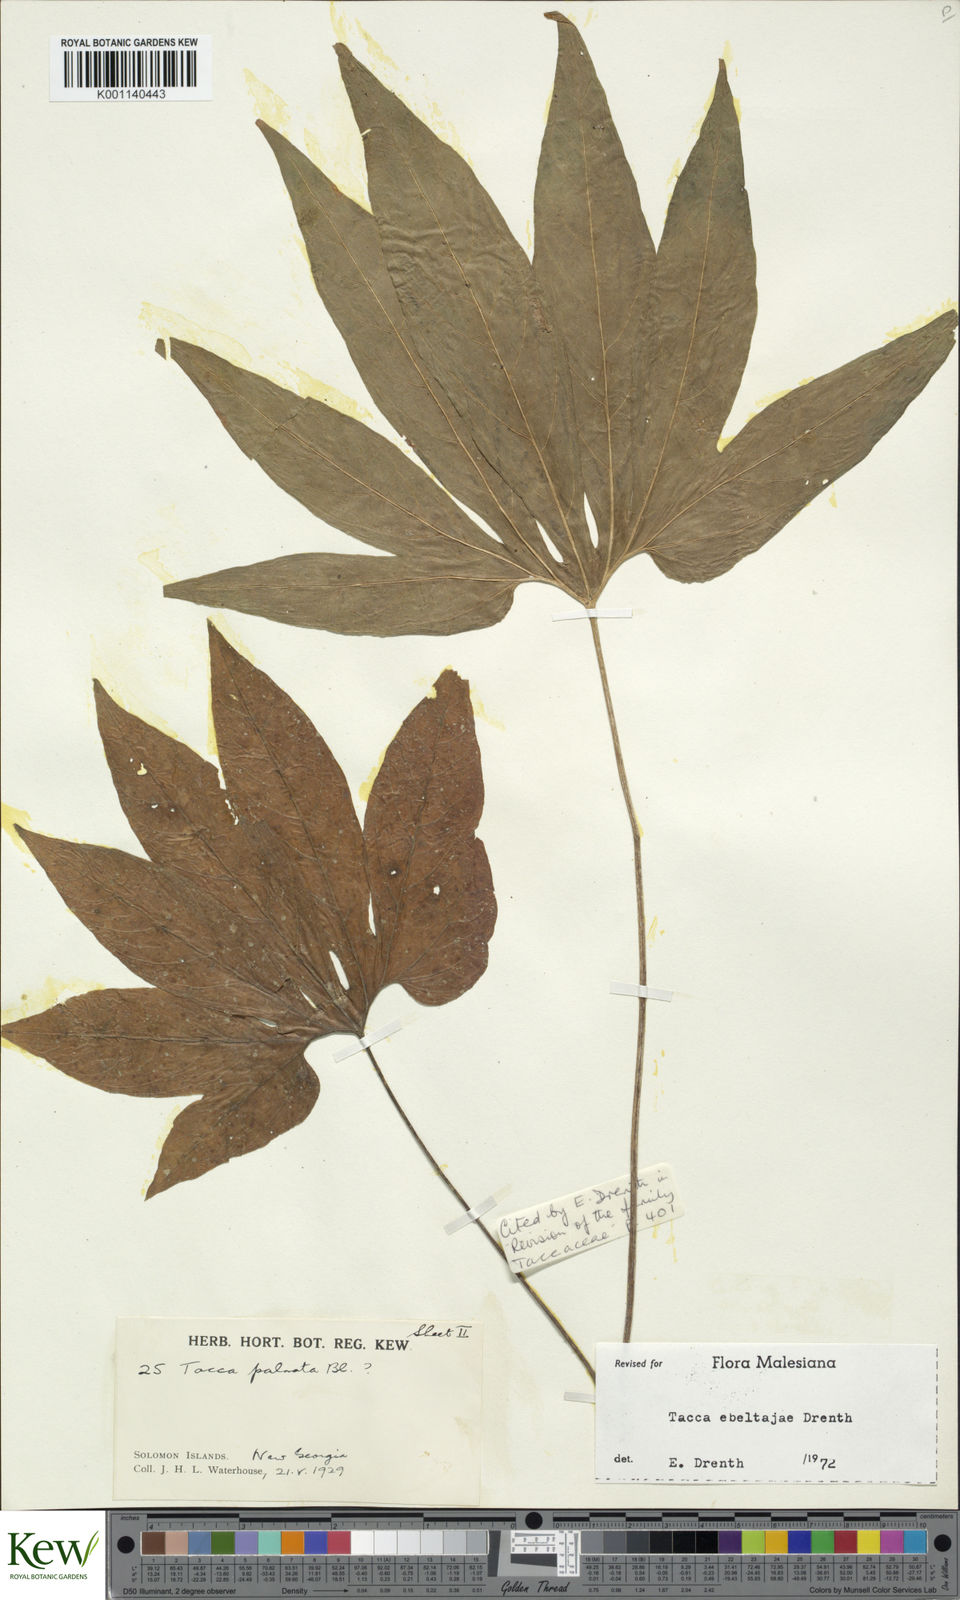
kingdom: Plantae
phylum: Tracheophyta
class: Liliopsida
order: Dioscoreales
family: Dioscoreaceae
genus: Tacca
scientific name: Tacca ebeltajae
